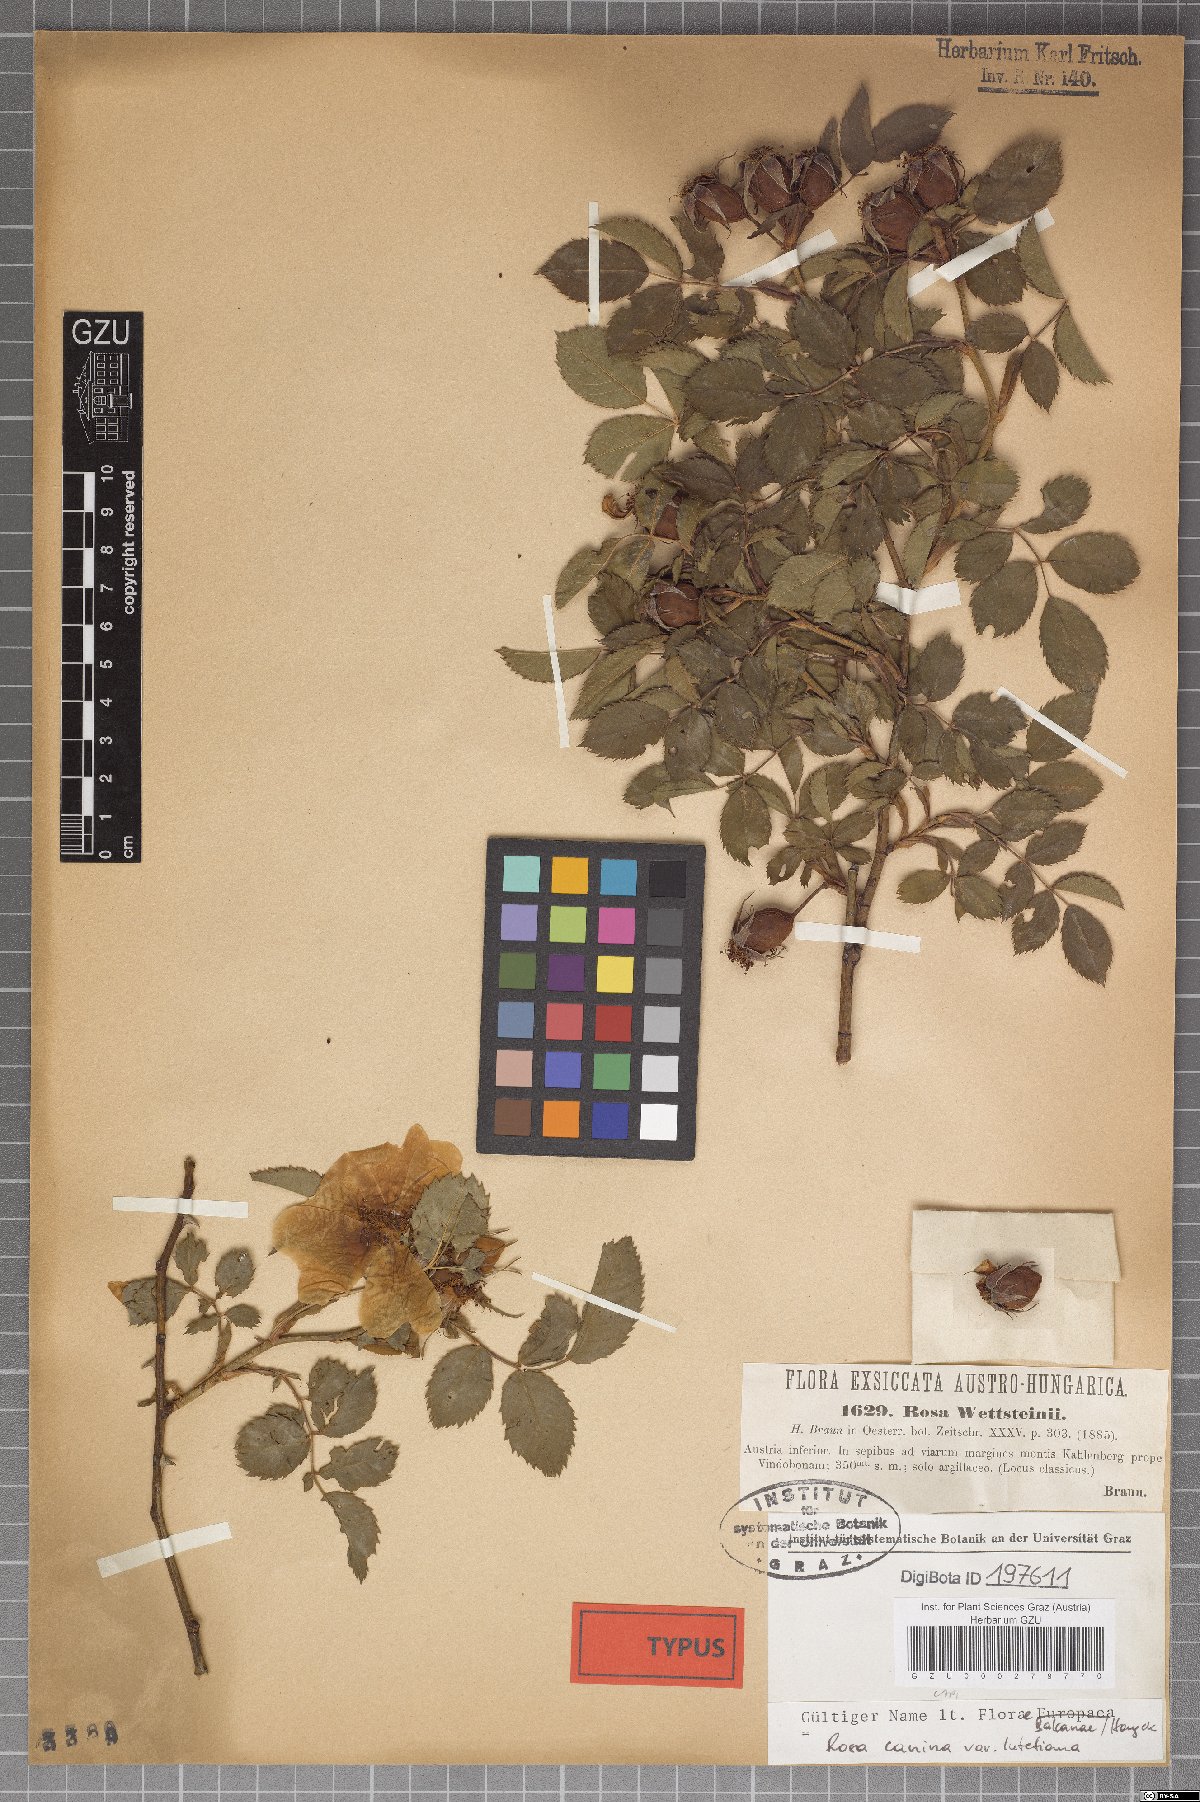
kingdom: Plantae
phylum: Tracheophyta
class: Magnoliopsida
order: Rosales
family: Rosaceae
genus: Rosa
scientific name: Rosa canina
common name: Dog rose
